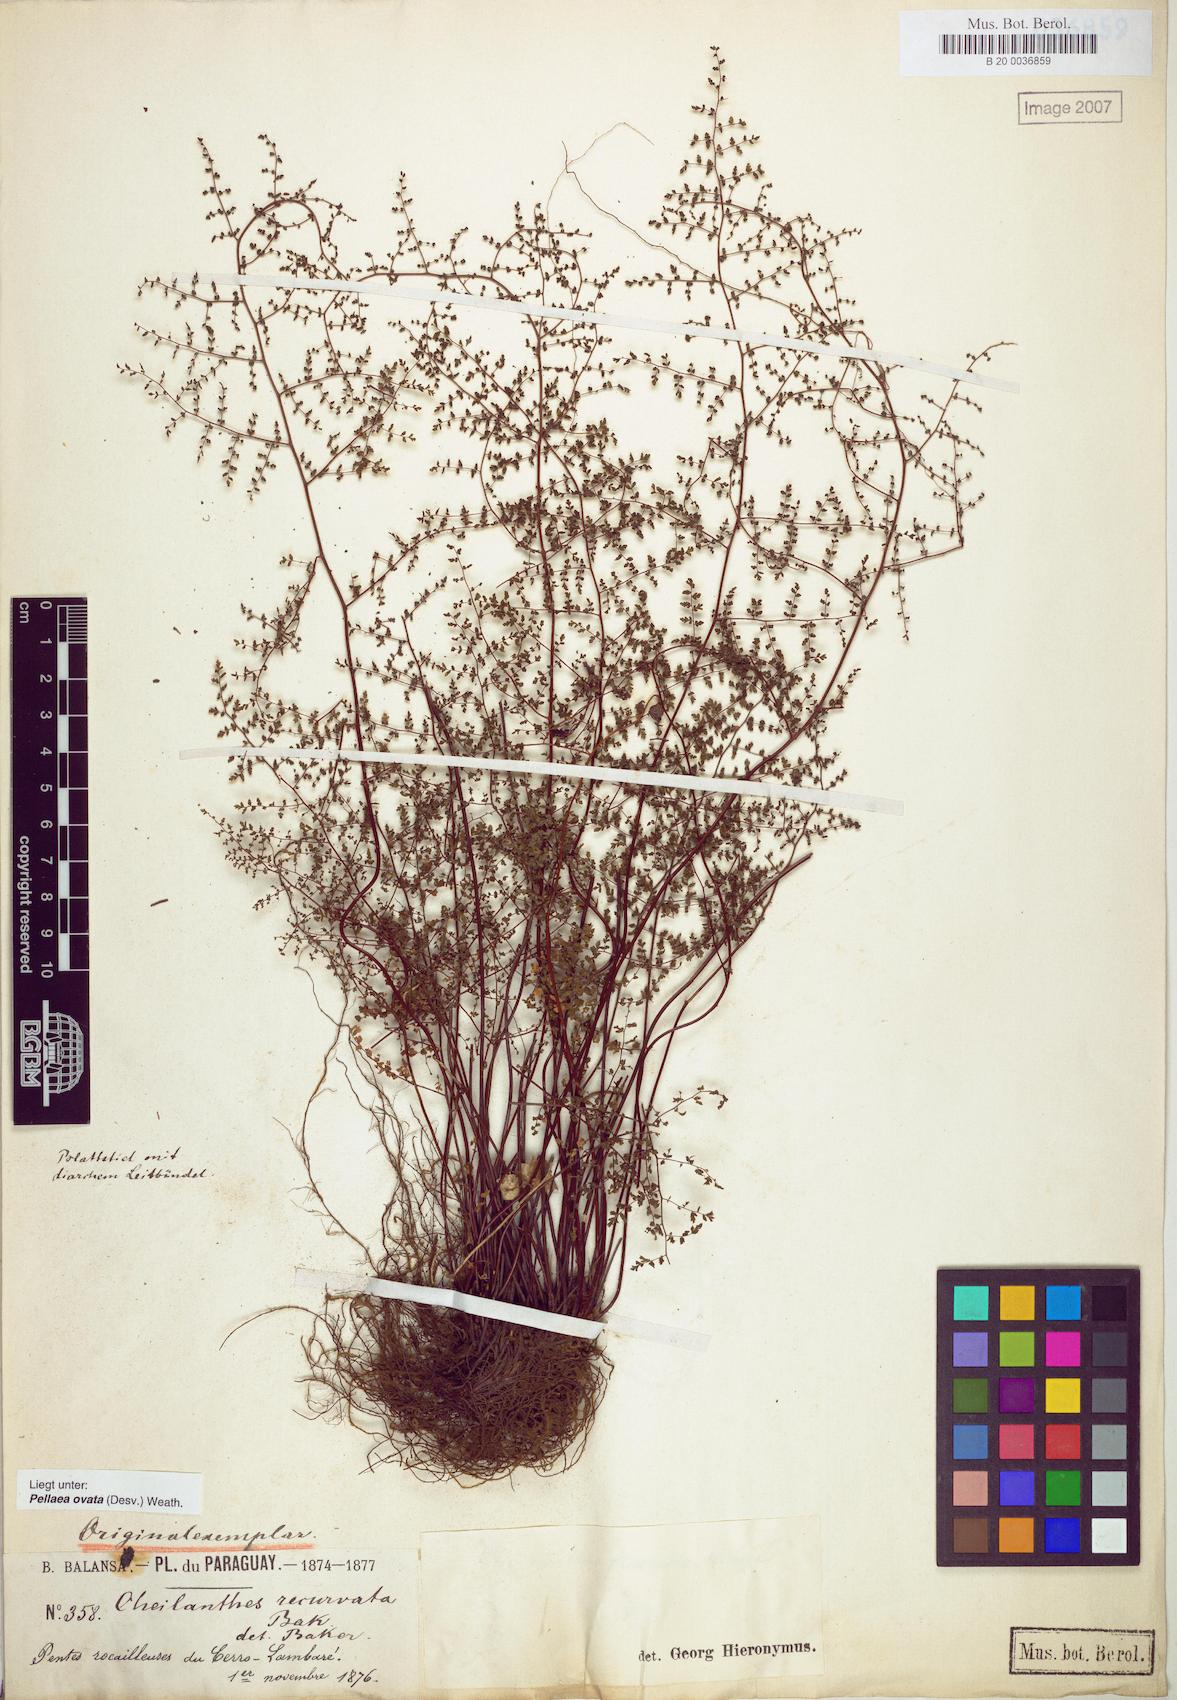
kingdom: Plantae
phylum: Tracheophyta
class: Polypodiopsida
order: Polypodiales
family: Pteridaceae
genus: Adiantopsis
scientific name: Adiantopsis recurvata
